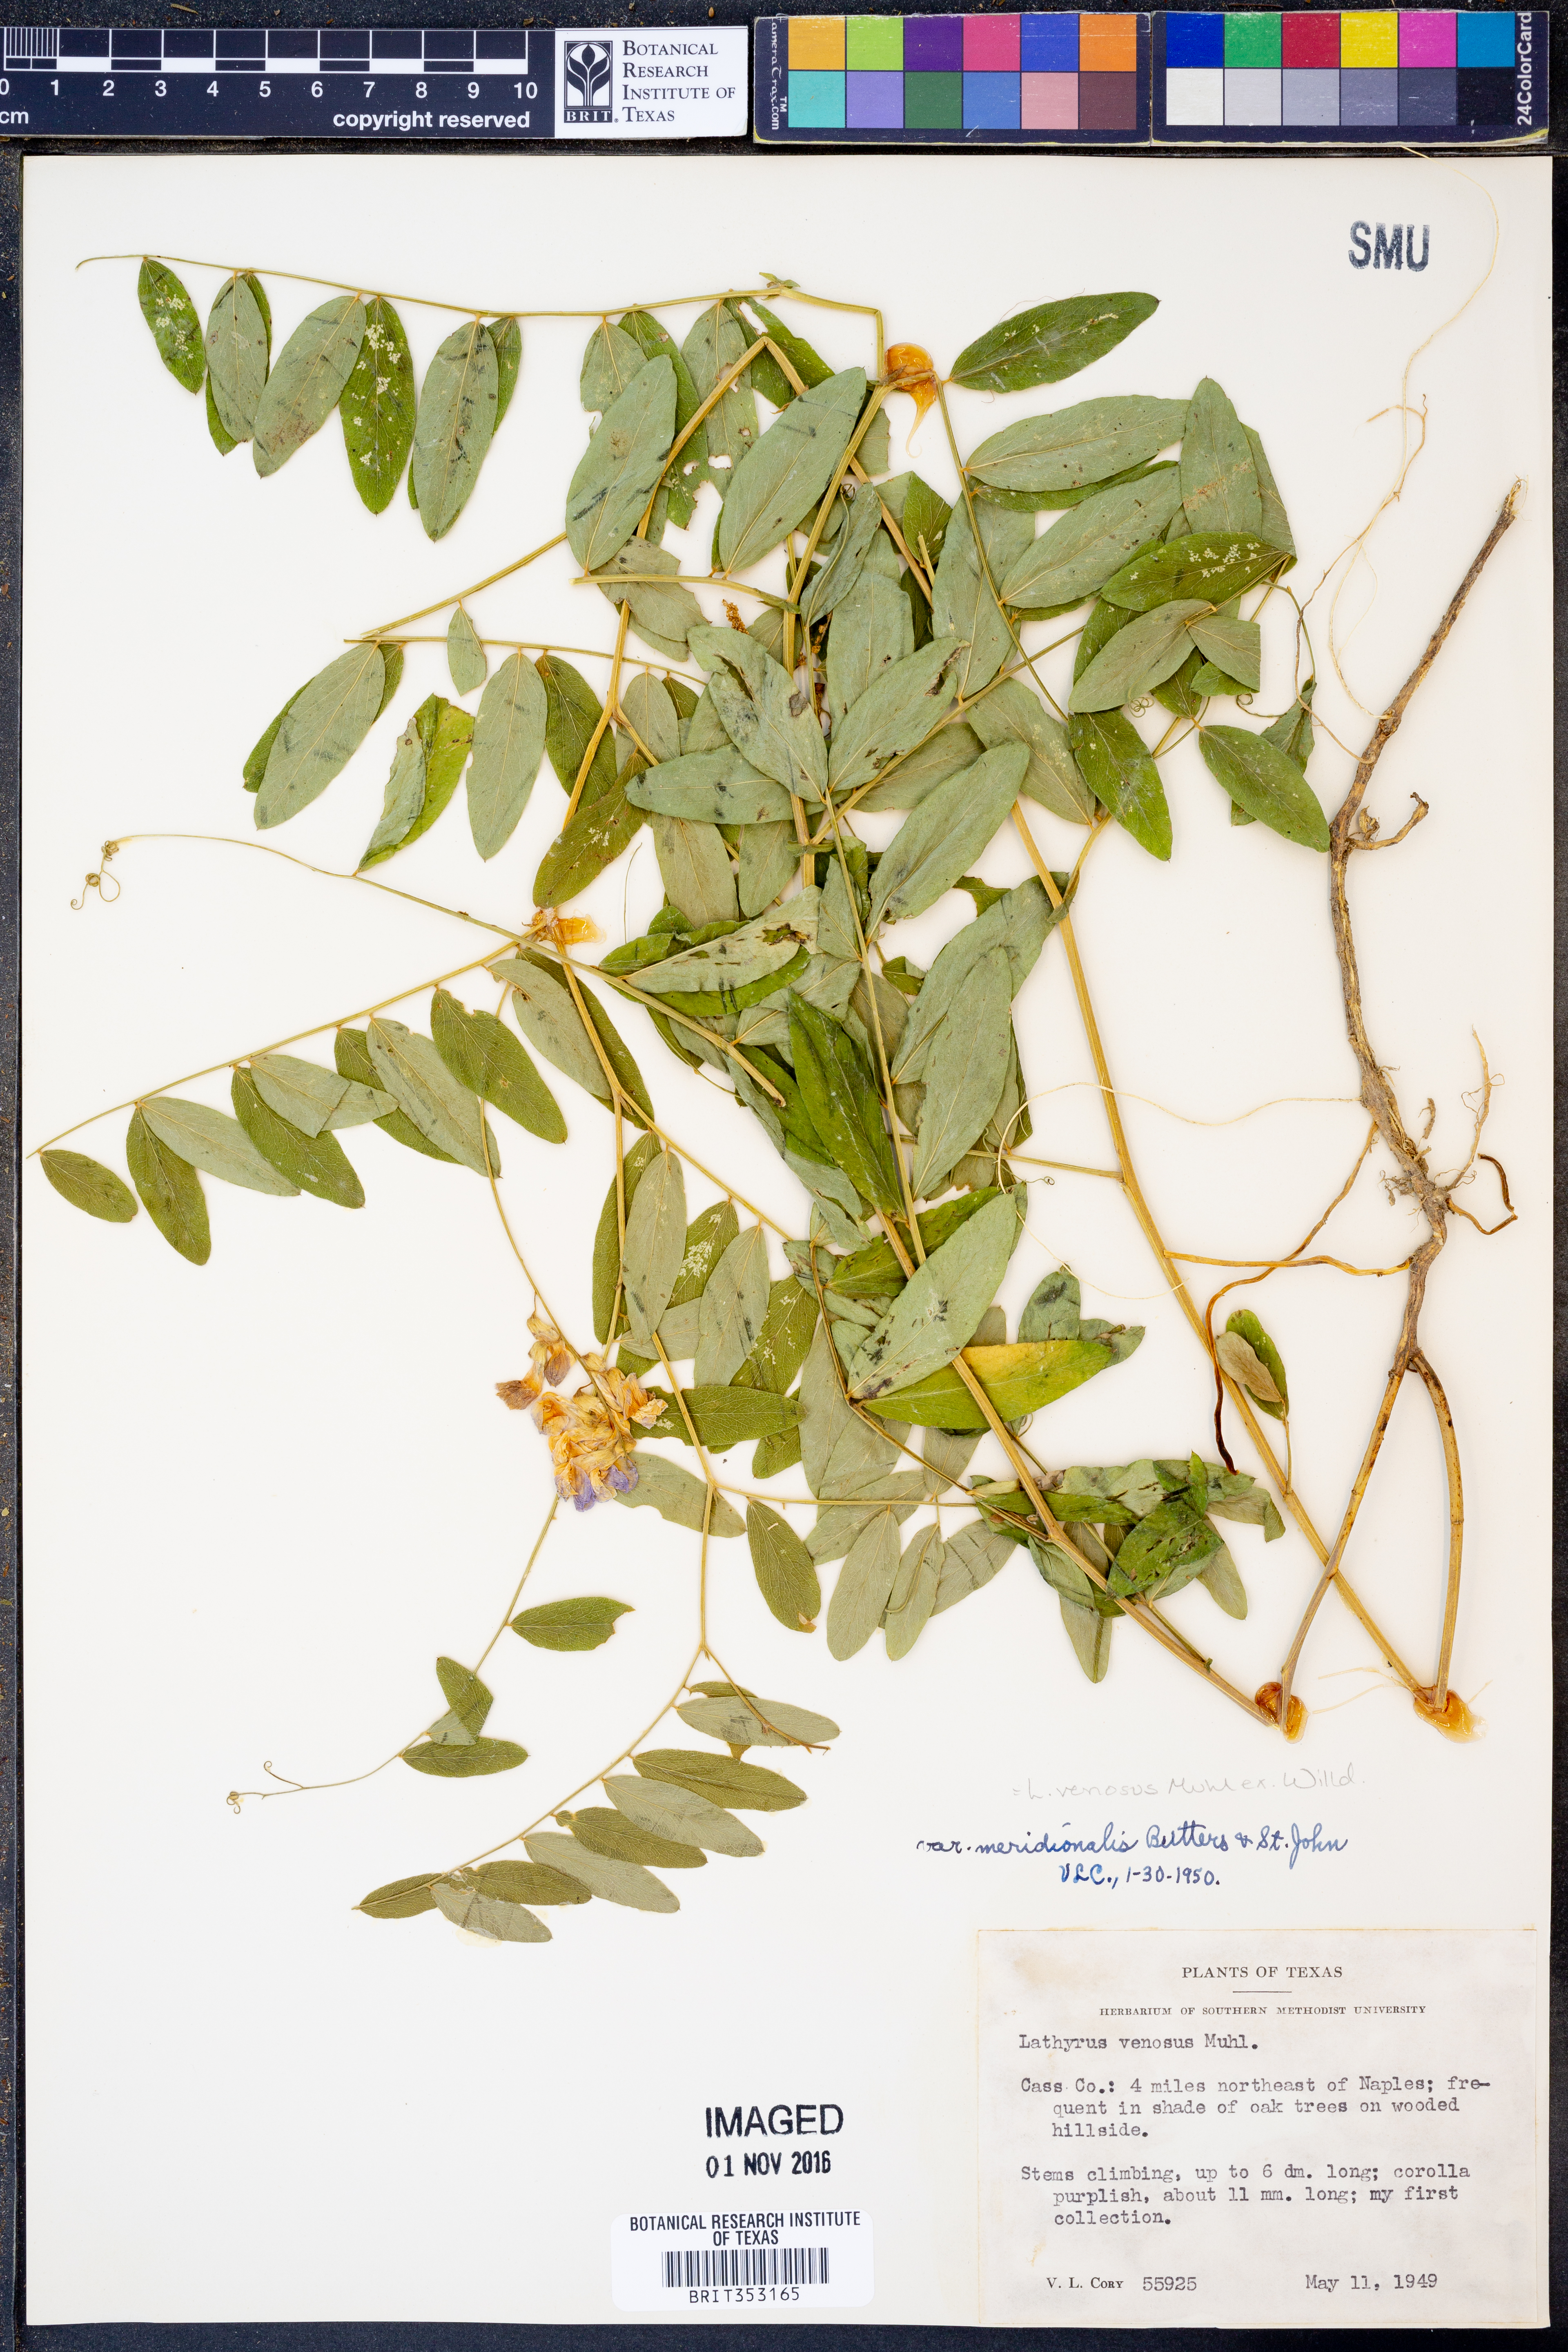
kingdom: Plantae
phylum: Tracheophyta
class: Magnoliopsida
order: Fabales
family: Fabaceae
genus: Lathyrus
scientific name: Lathyrus venosus
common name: Forest-pea
